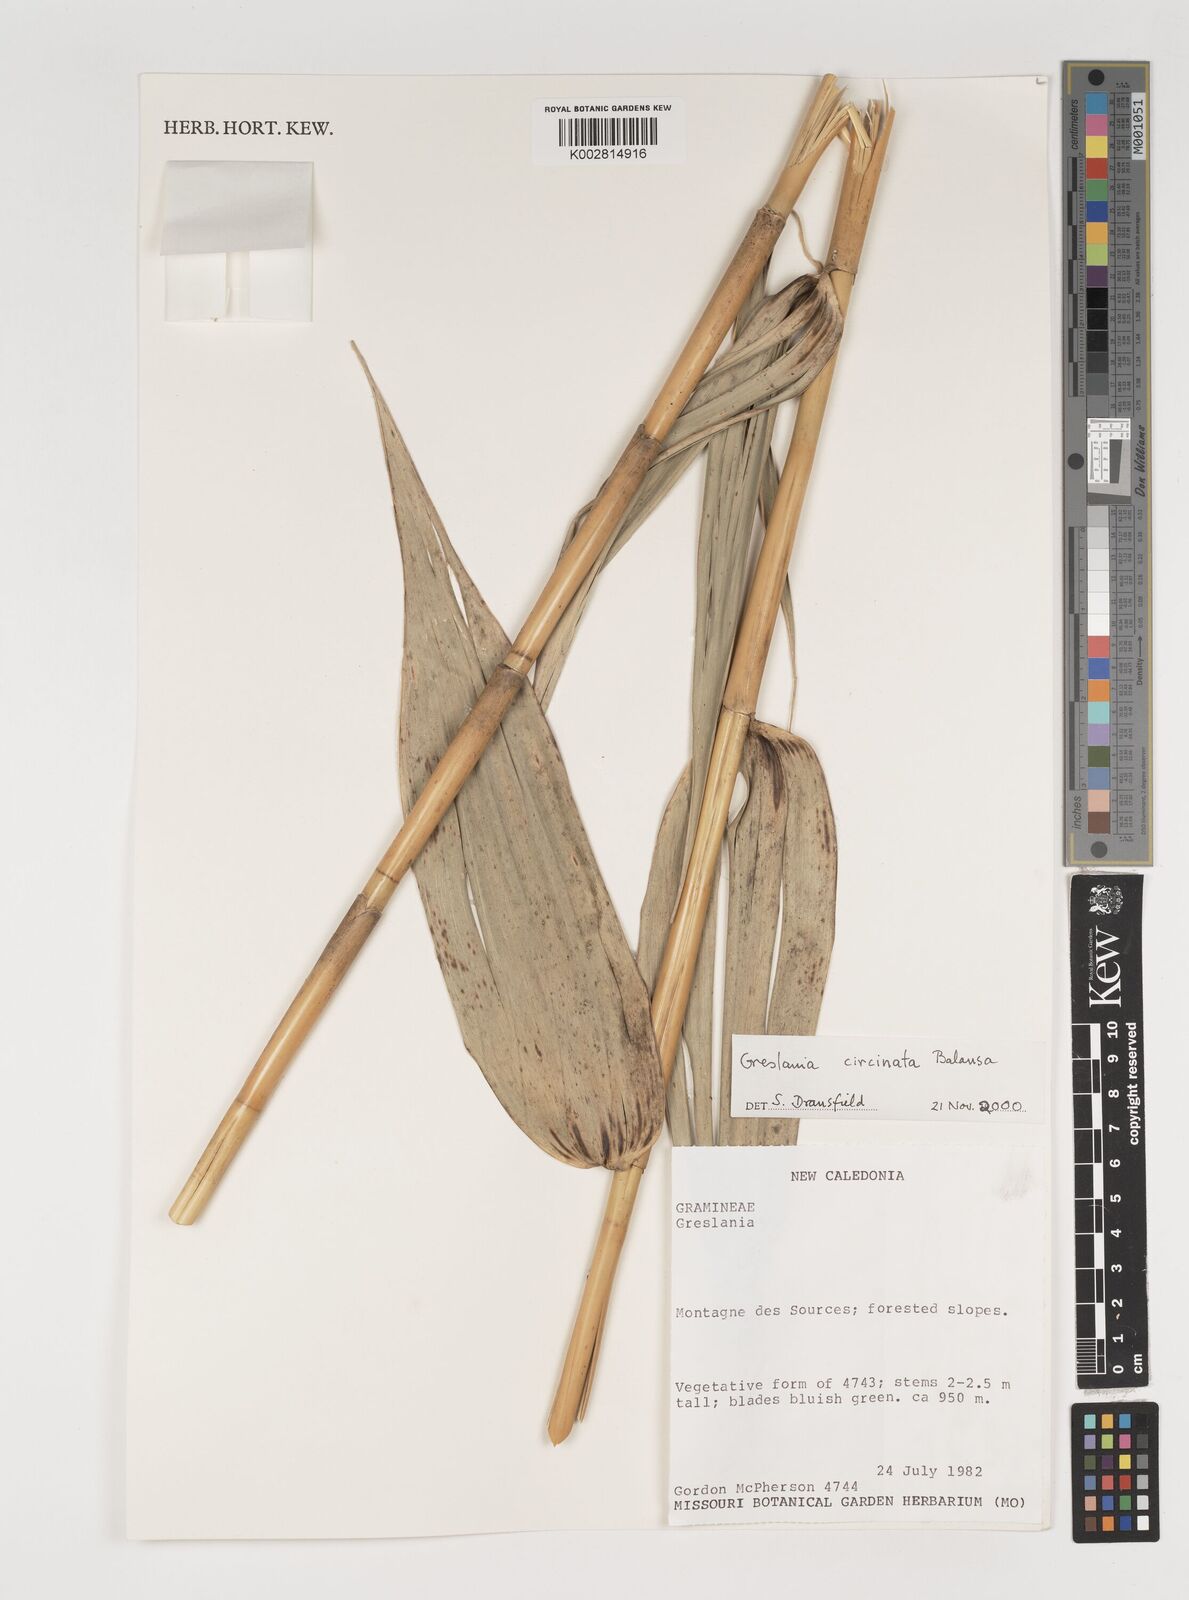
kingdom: Plantae
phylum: Tracheophyta
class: Liliopsida
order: Poales
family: Poaceae
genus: Greslania
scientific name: Greslania circinata
